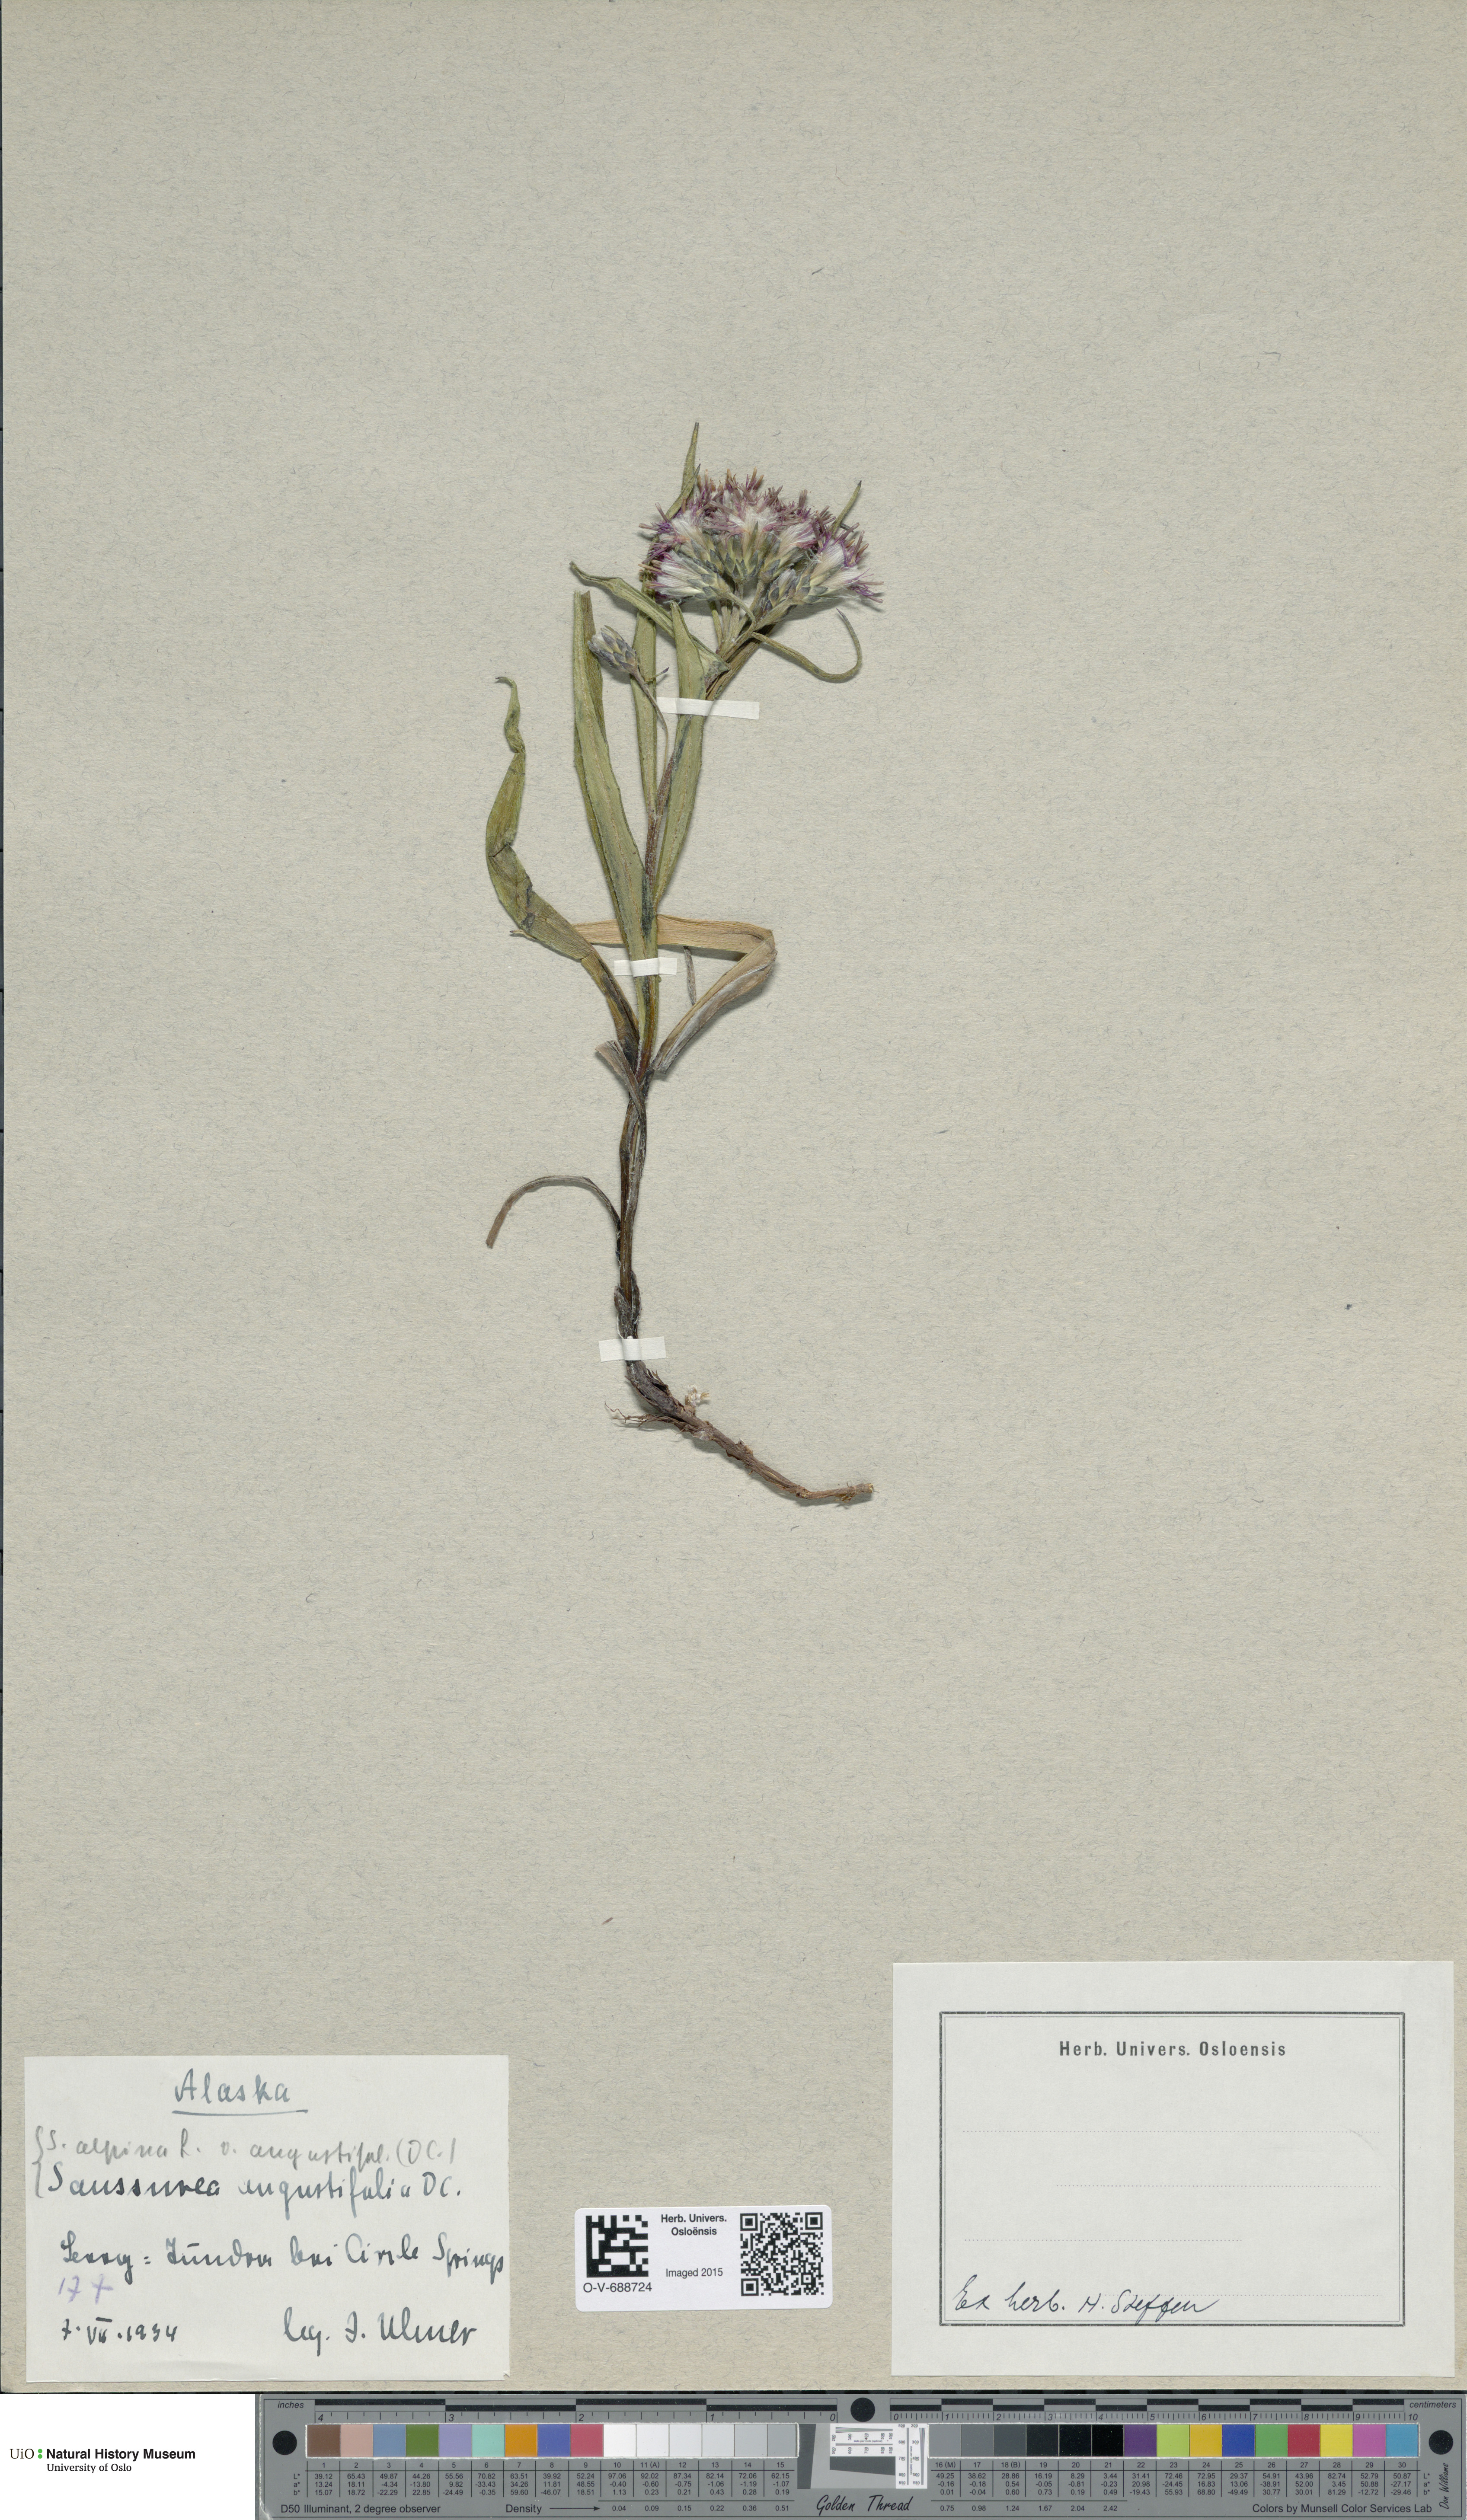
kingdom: Plantae
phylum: Tracheophyta
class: Magnoliopsida
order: Asterales
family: Asteraceae
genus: Saussurea
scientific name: Saussurea angustifolia
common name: Common saussurea
